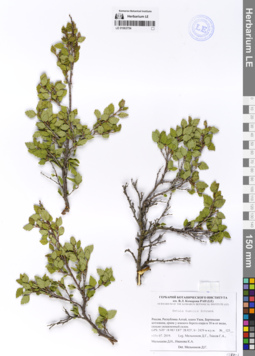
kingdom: Plantae
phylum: Tracheophyta
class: Magnoliopsida
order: Fagales
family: Betulaceae
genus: Betula
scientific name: Betula humilis
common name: Shrubby birch
